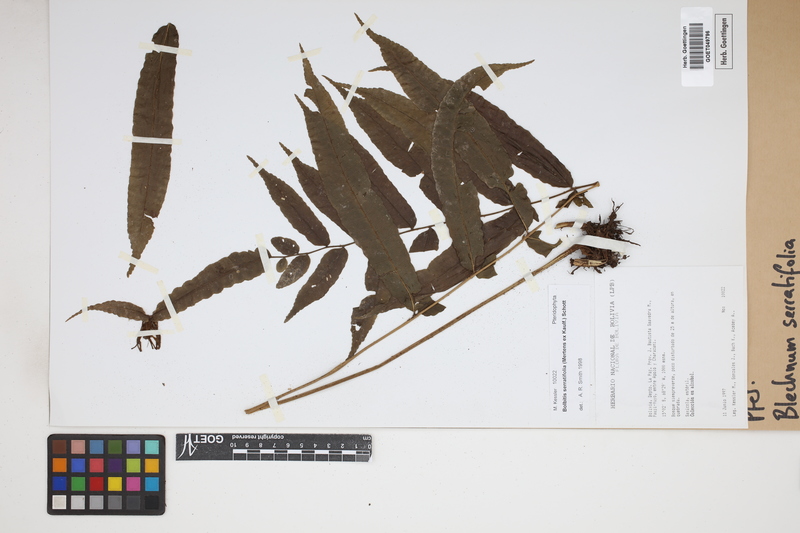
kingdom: Plantae
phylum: Tracheophyta
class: Polypodiopsida
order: Polypodiales
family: Blechnaceae
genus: Blechnum
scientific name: Blechnum
